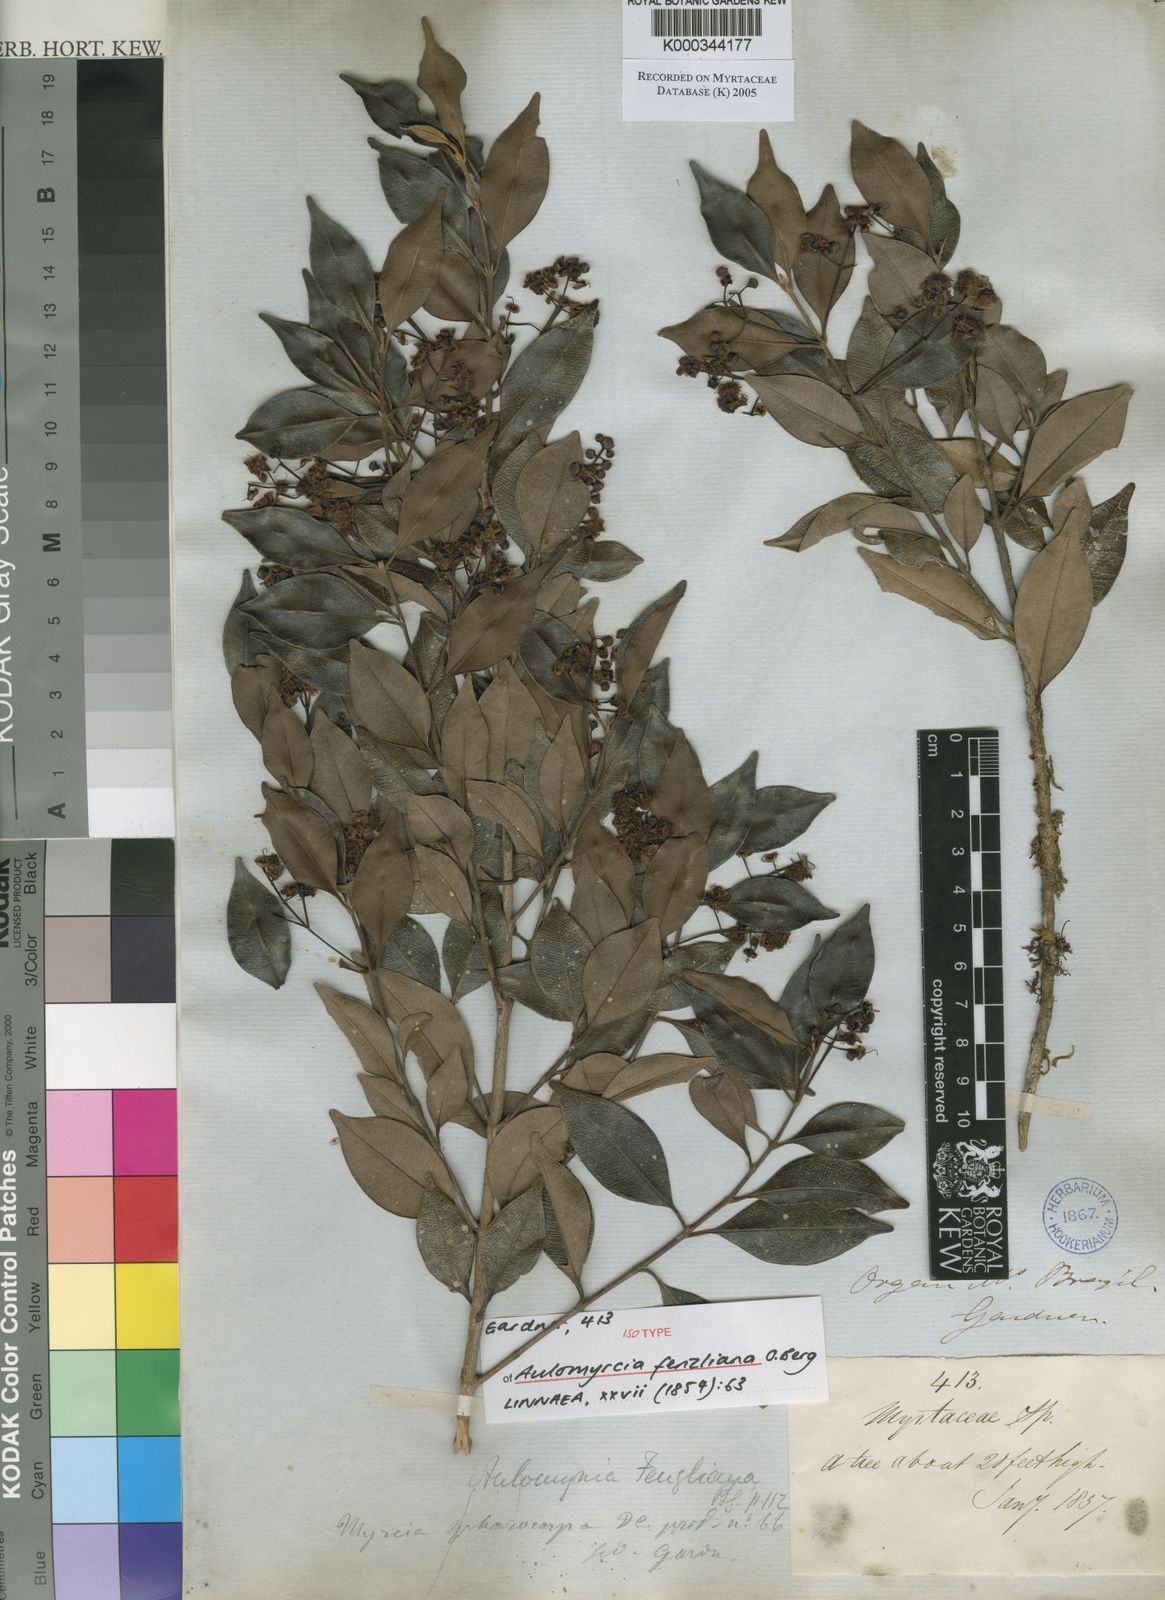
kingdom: Plantae
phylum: Tracheophyta
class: Magnoliopsida
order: Myrtales
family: Myrtaceae
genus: Myrcia
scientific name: Myrcia oligantha
